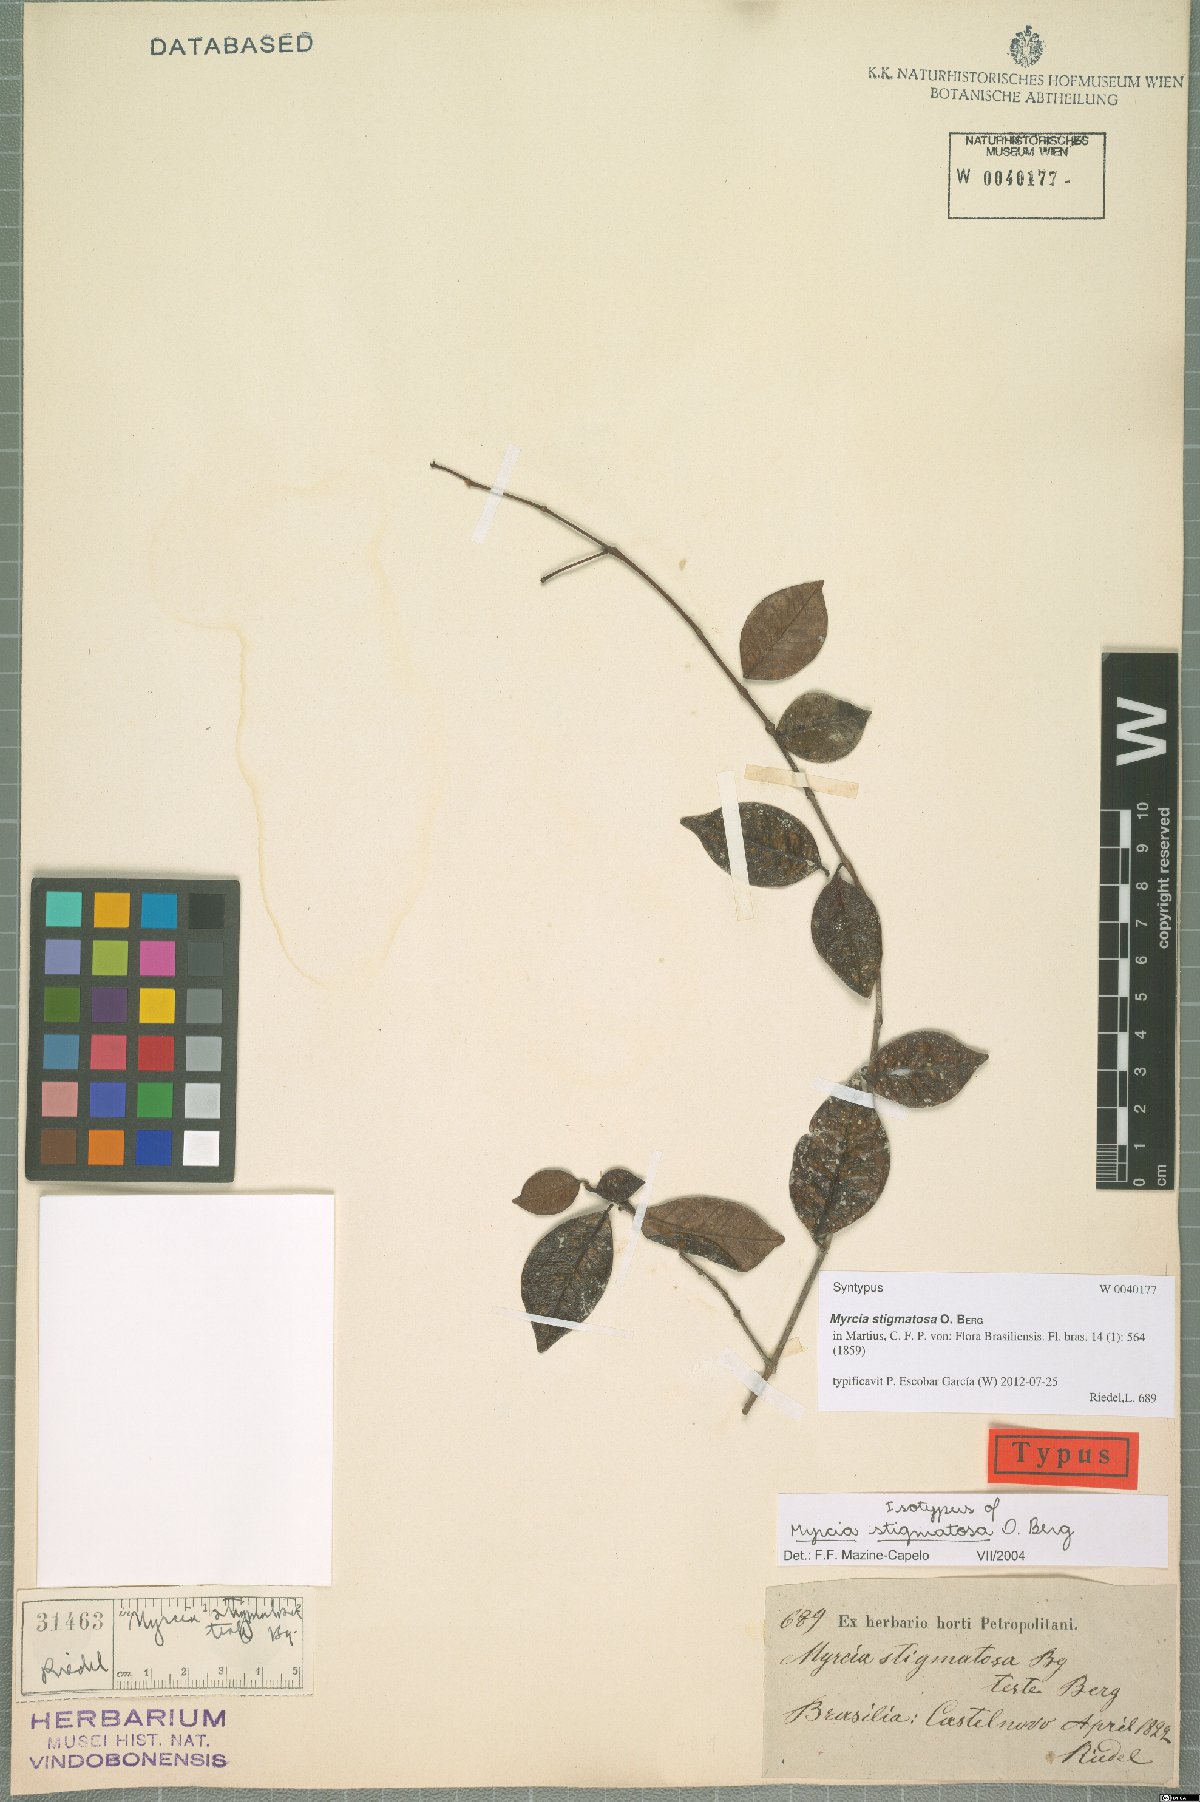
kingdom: Plantae
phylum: Tracheophyta
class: Magnoliopsida
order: Myrtales
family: Myrtaceae
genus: Myrcia
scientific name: Myrcia stigmatosa
